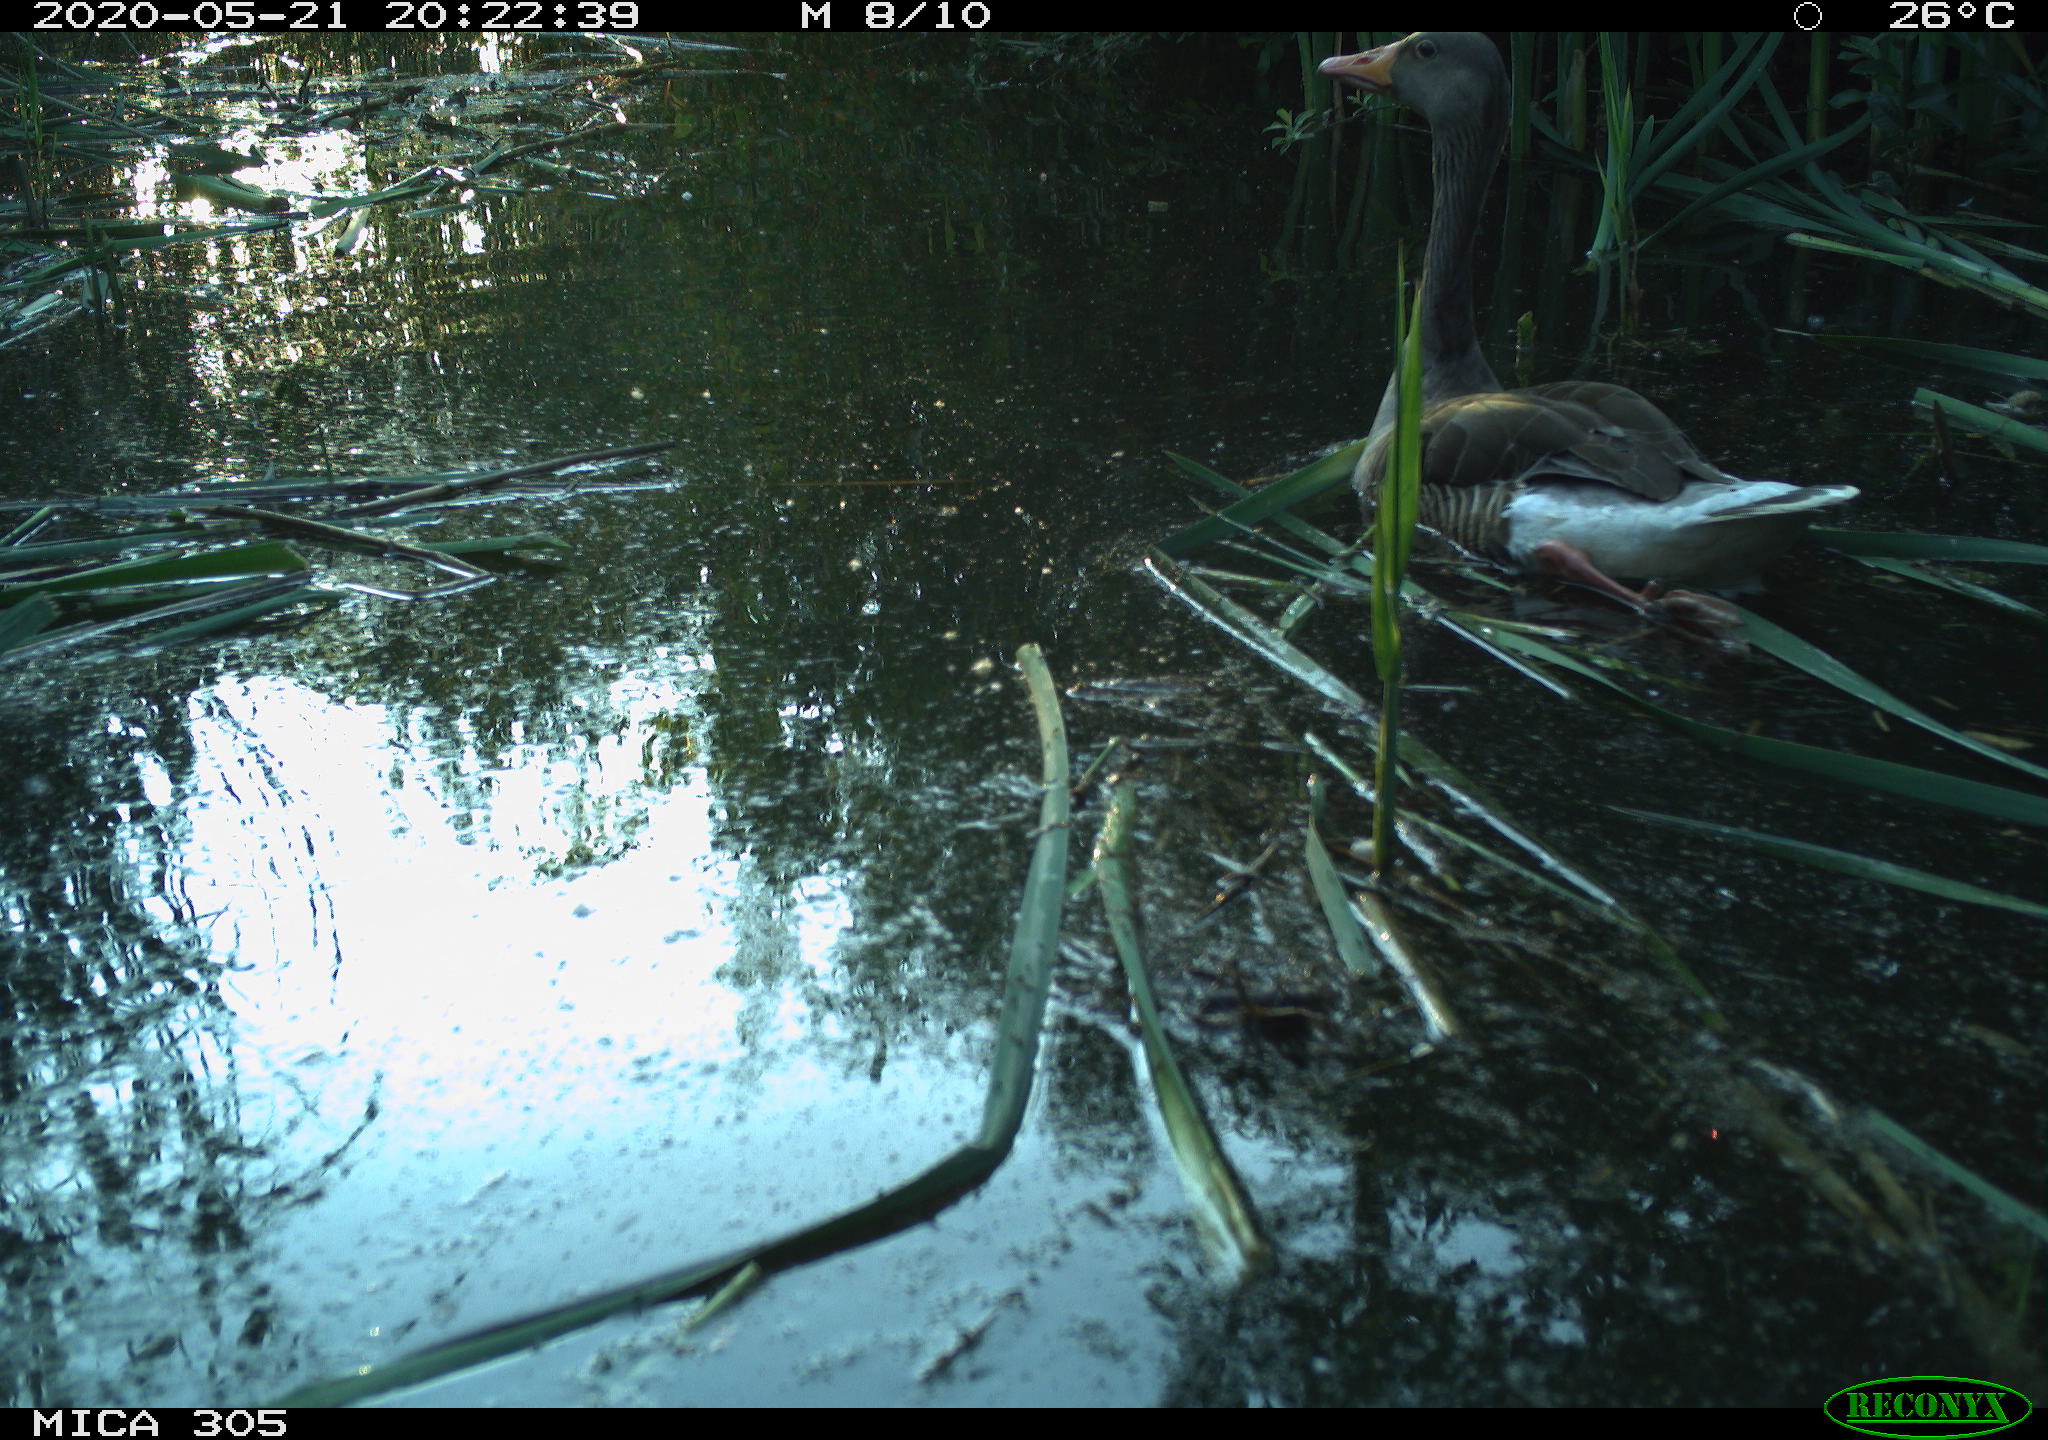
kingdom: Animalia
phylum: Chordata
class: Aves
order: Anseriformes
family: Anatidae
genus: Anser
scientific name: Anser anser
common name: Greylag goose
